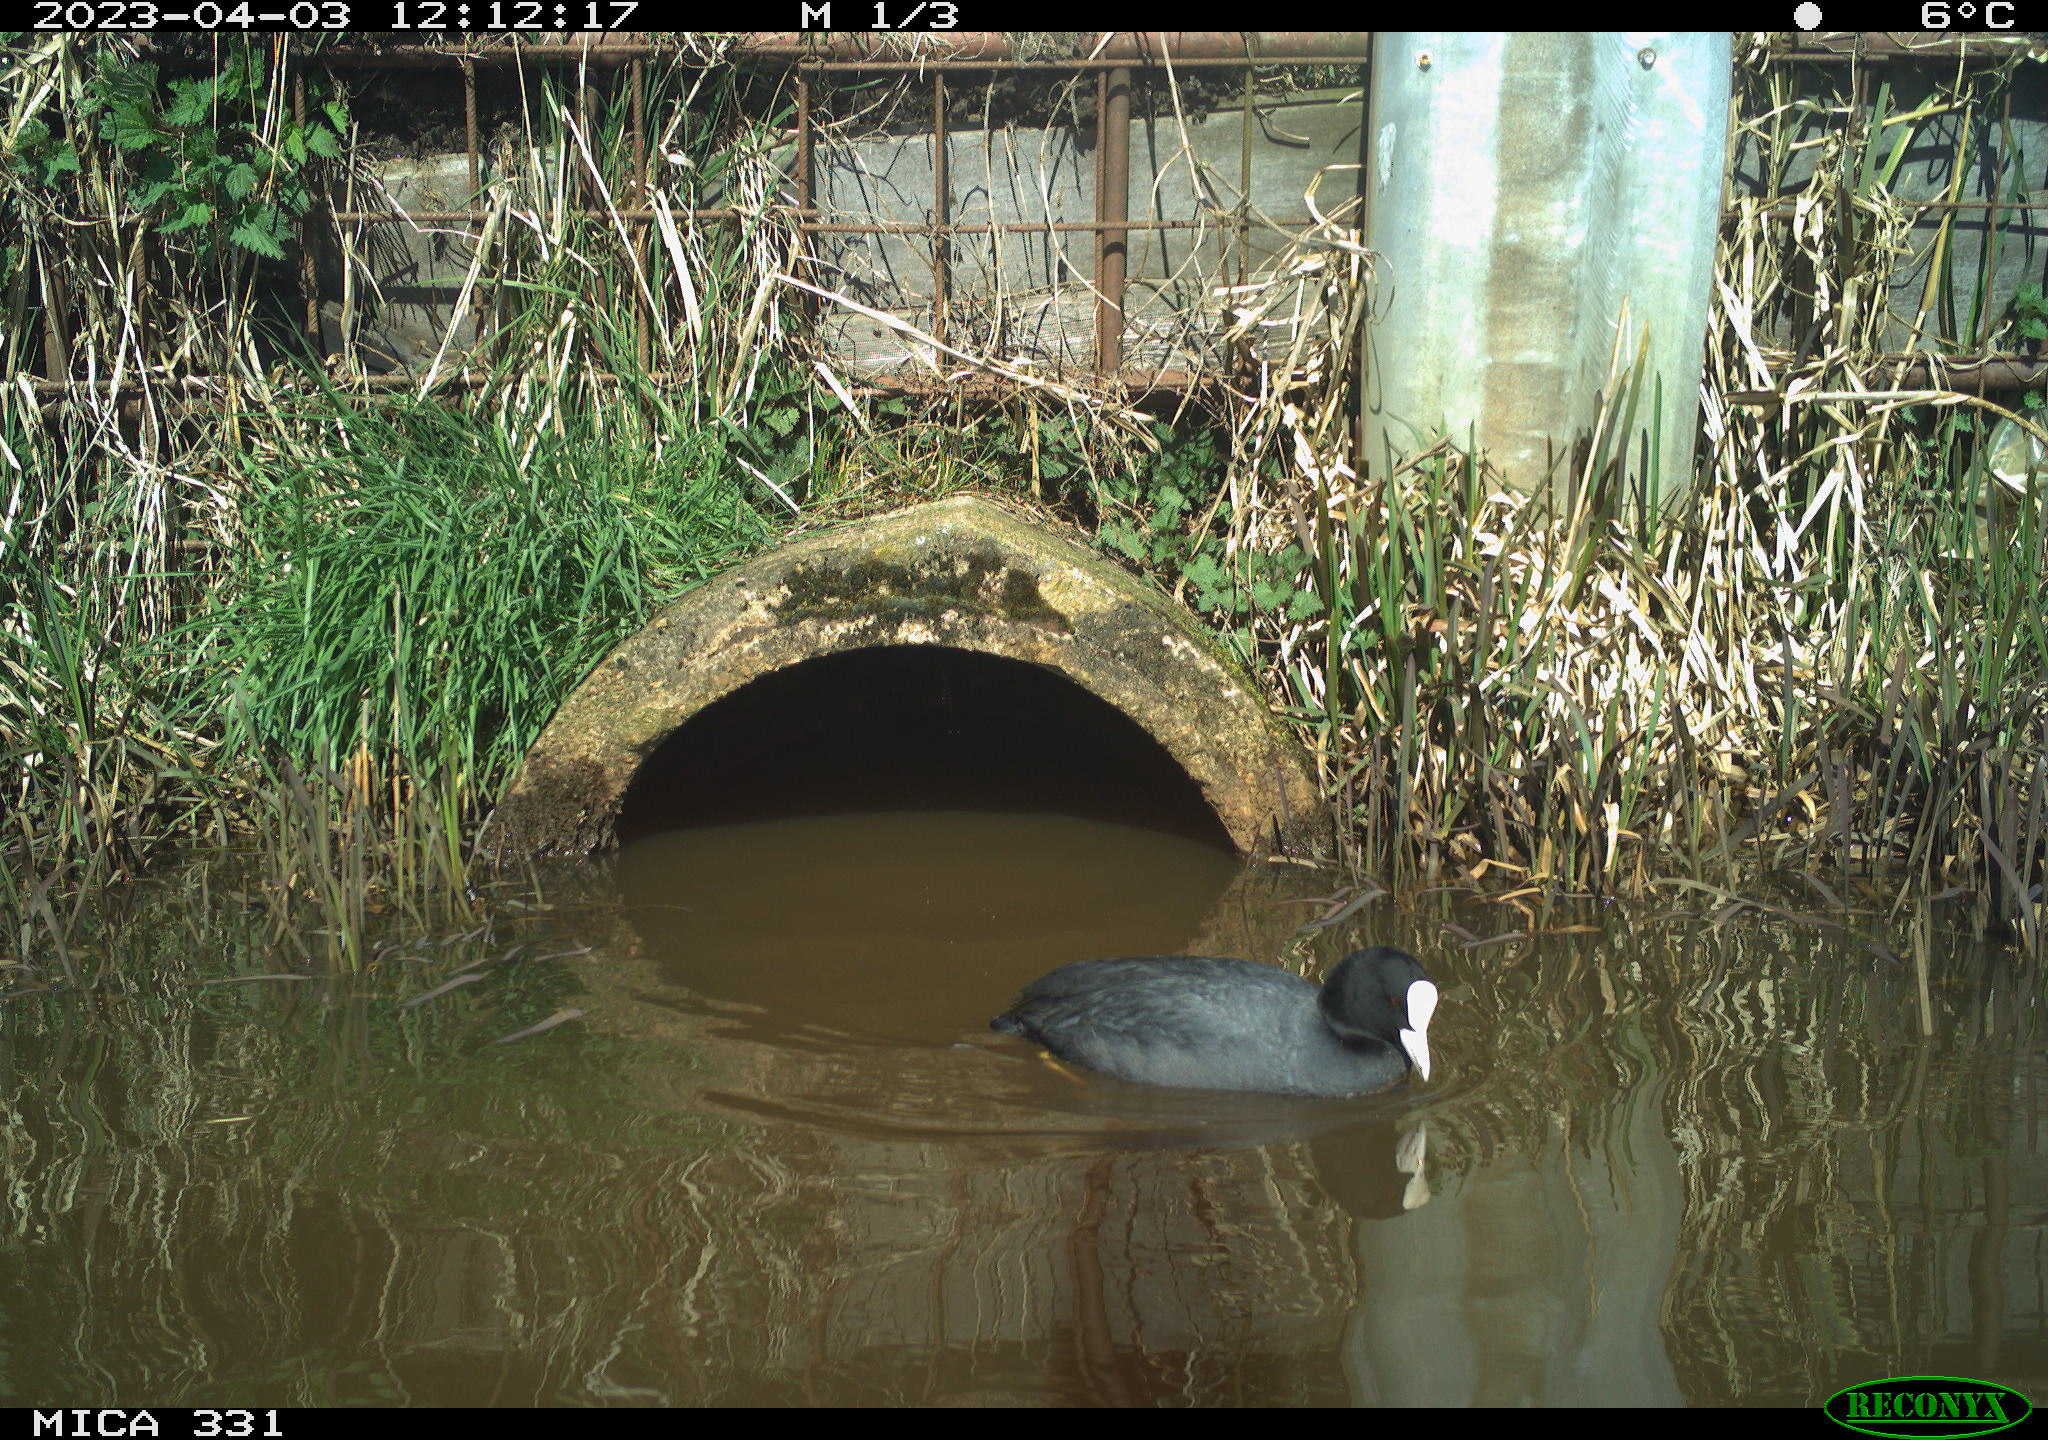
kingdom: Animalia
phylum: Chordata
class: Aves
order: Gruiformes
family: Rallidae
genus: Fulica
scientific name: Fulica atra
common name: Eurasian coot
